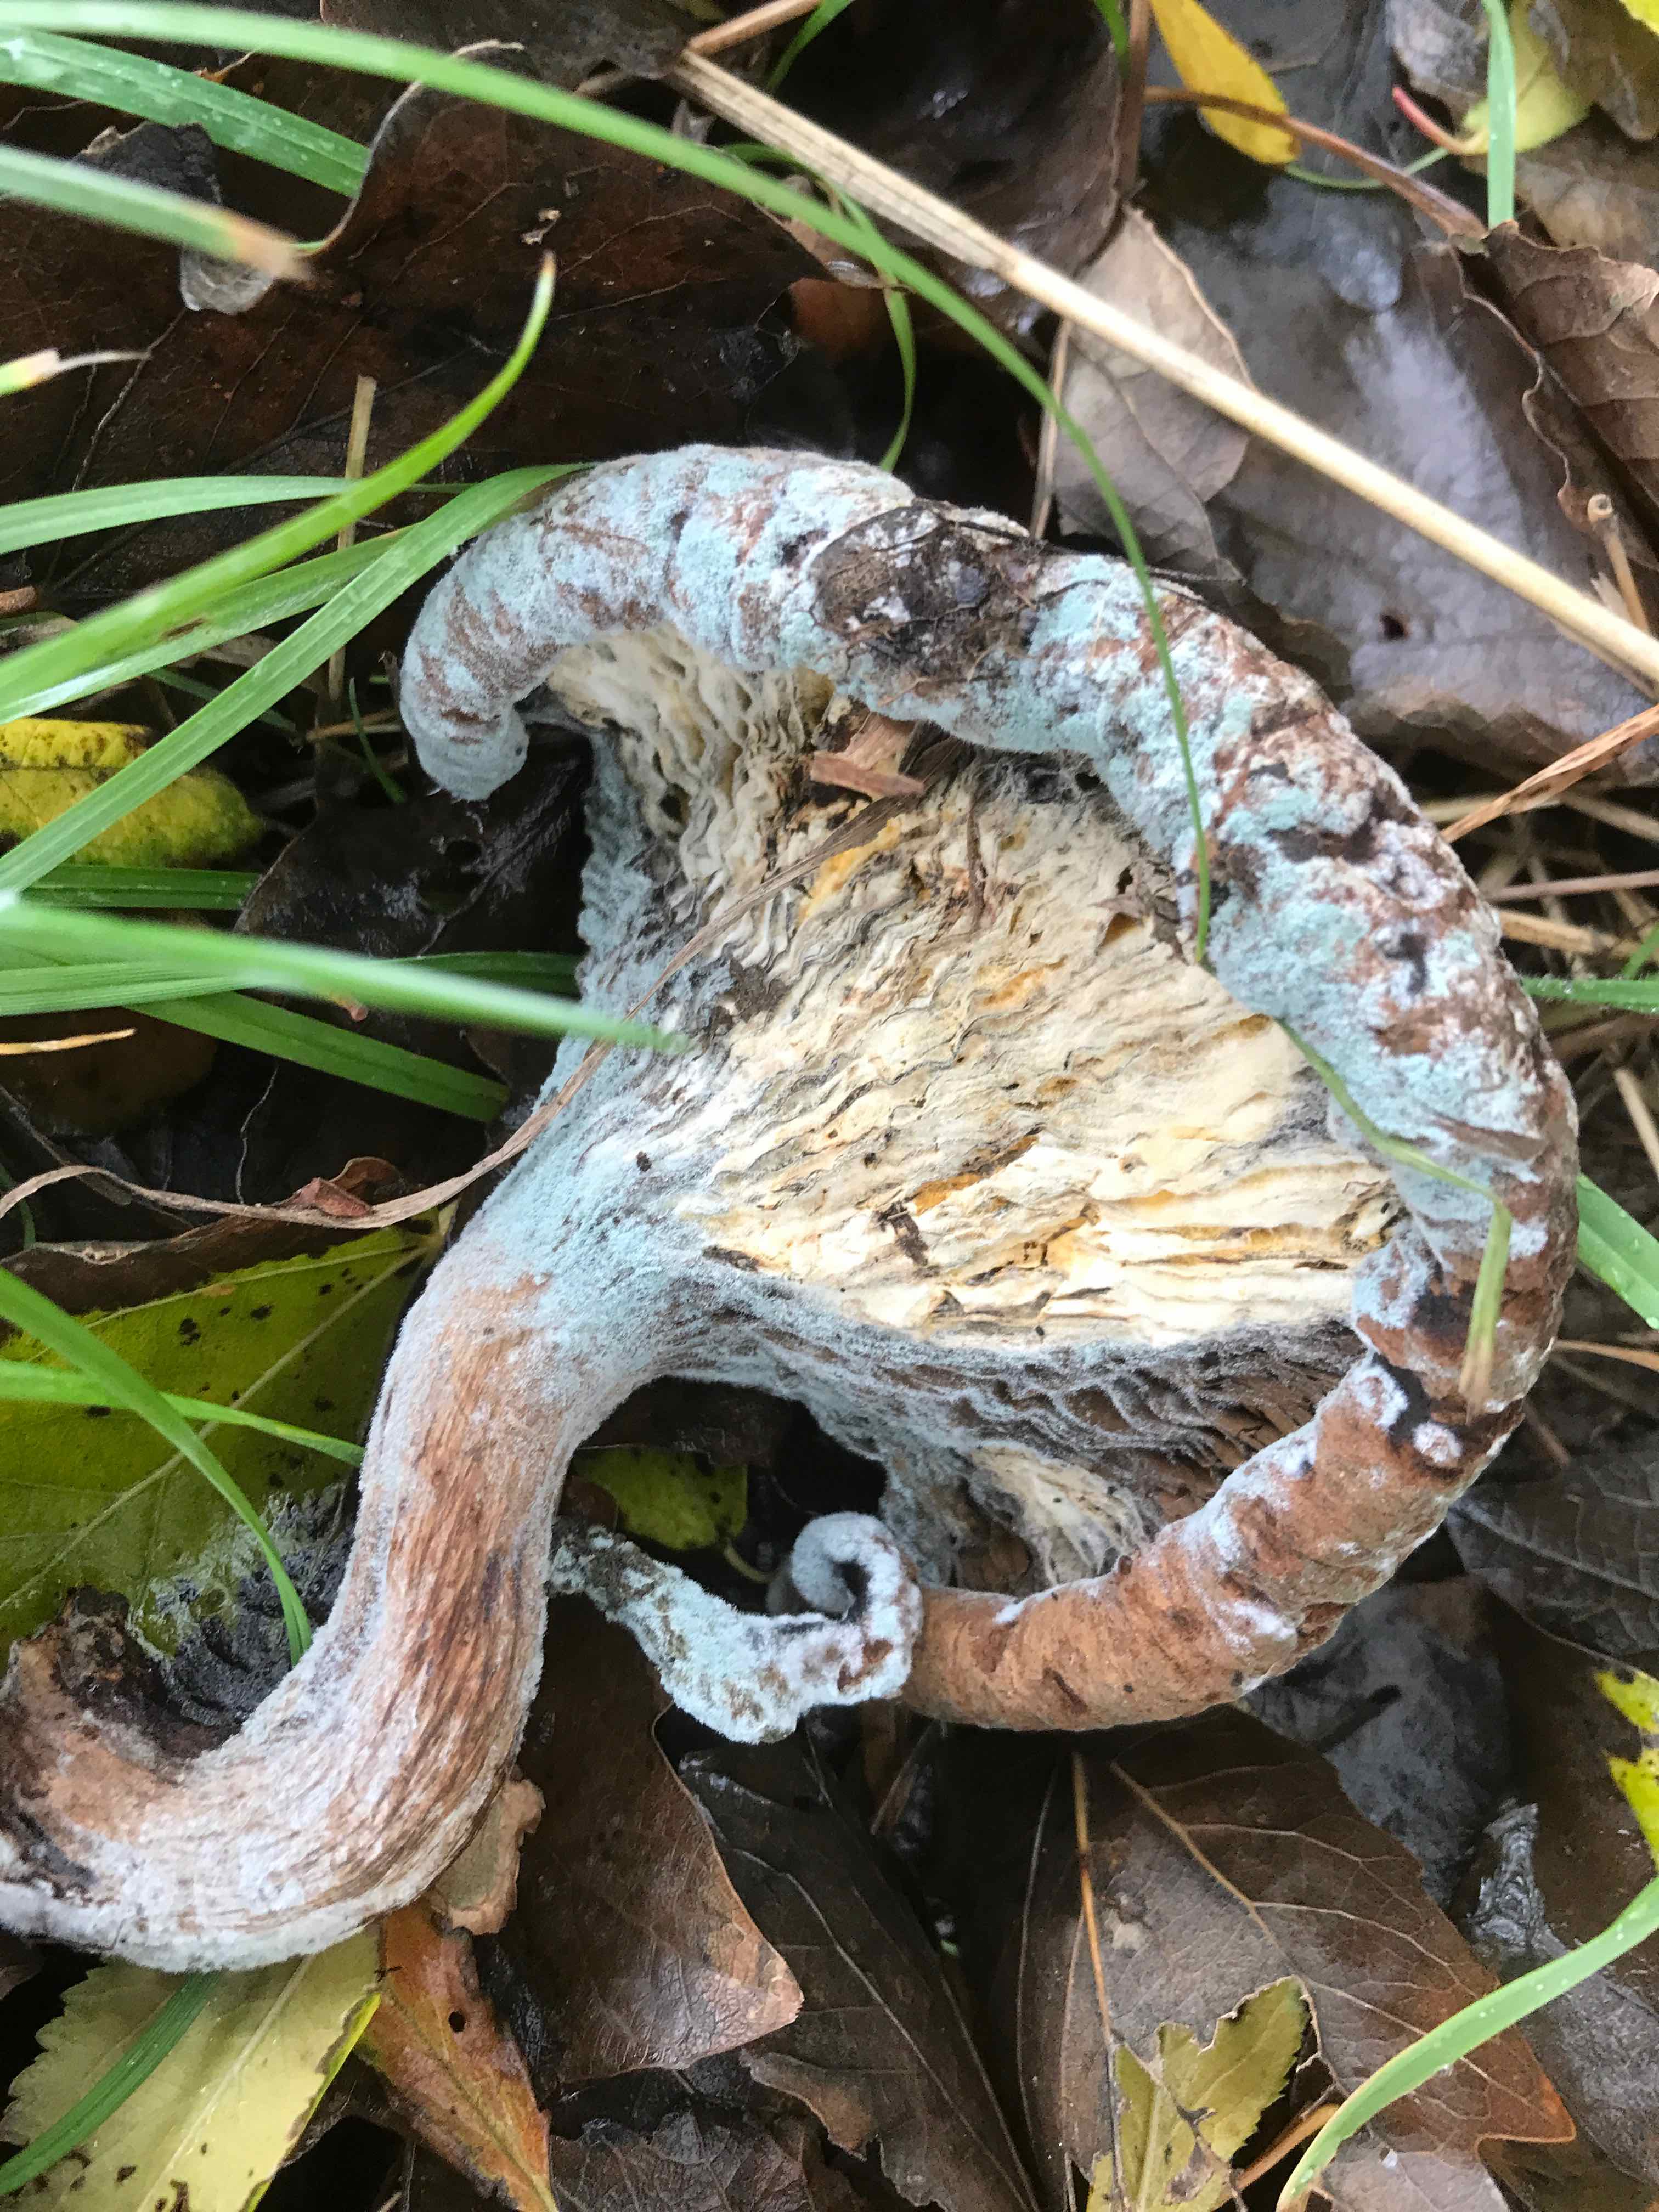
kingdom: Fungi
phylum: Ascomycota
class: Eurotiomycetes
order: Eurotiales
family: Aspergillaceae
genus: Penicillium
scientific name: Penicillium
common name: penselskimmel
